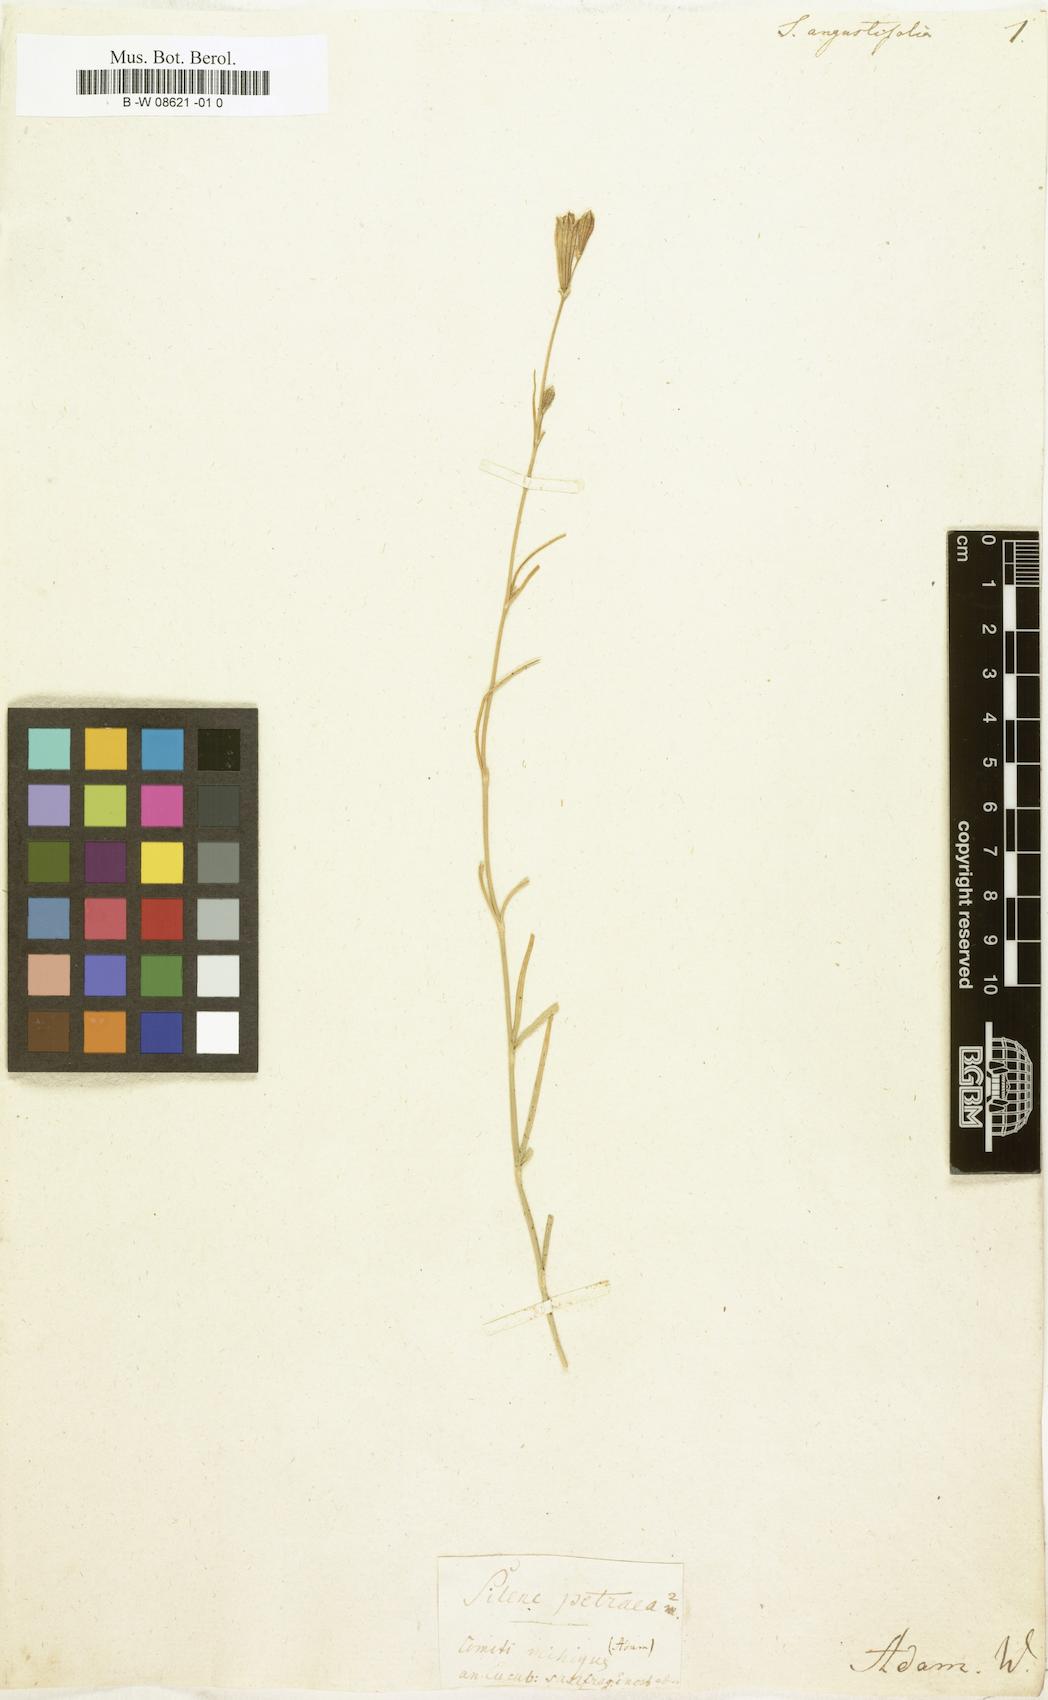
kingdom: Plantae
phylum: Tracheophyta
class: Magnoliopsida
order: Caryophyllales
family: Caryophyllaceae
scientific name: Caryophyllaceae
